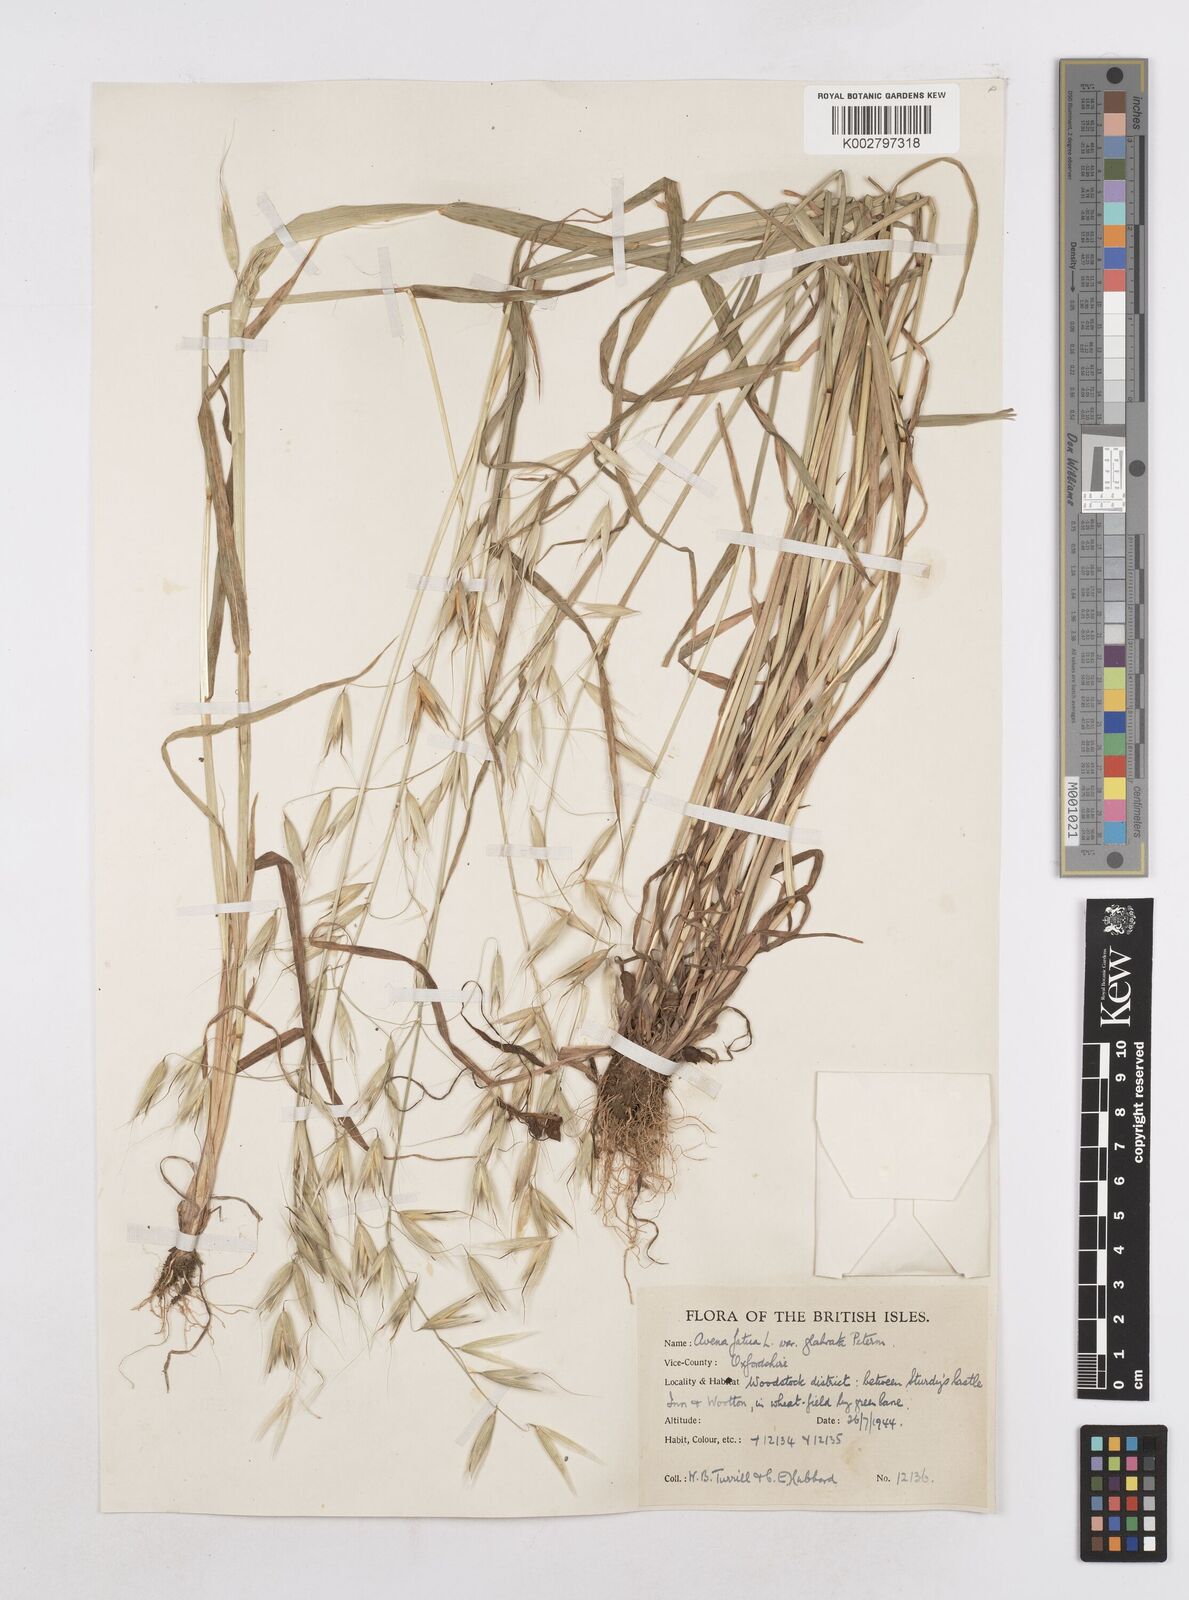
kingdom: Plantae
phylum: Tracheophyta
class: Liliopsida
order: Poales
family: Poaceae
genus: Avena
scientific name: Avena fatua
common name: Wild oat
